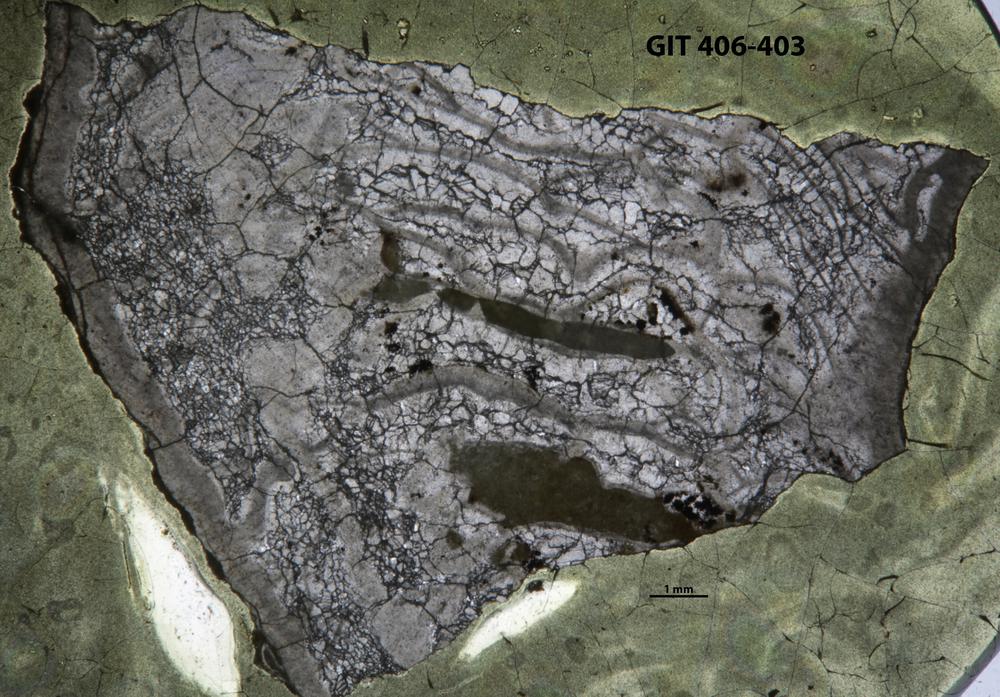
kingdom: Animalia
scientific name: Animalia
